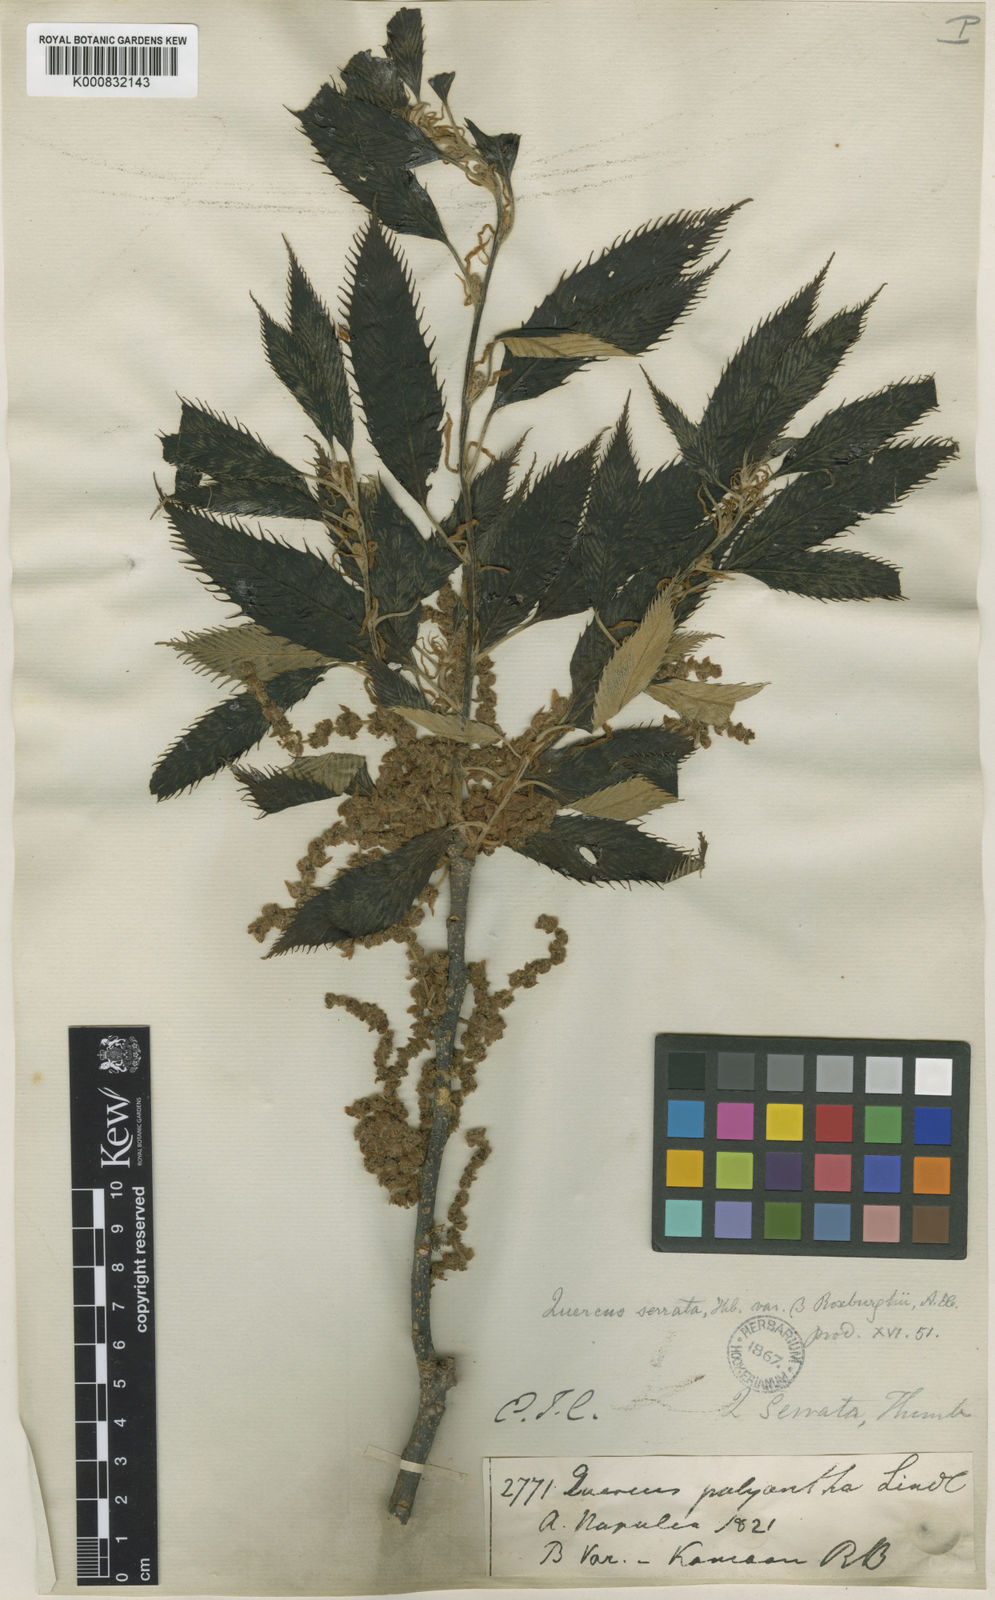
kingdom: Plantae
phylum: Tracheophyta
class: Magnoliopsida
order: Fagales
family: Fagaceae
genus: Quercus
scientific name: Quercus acutissima
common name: Sawtooth oak
